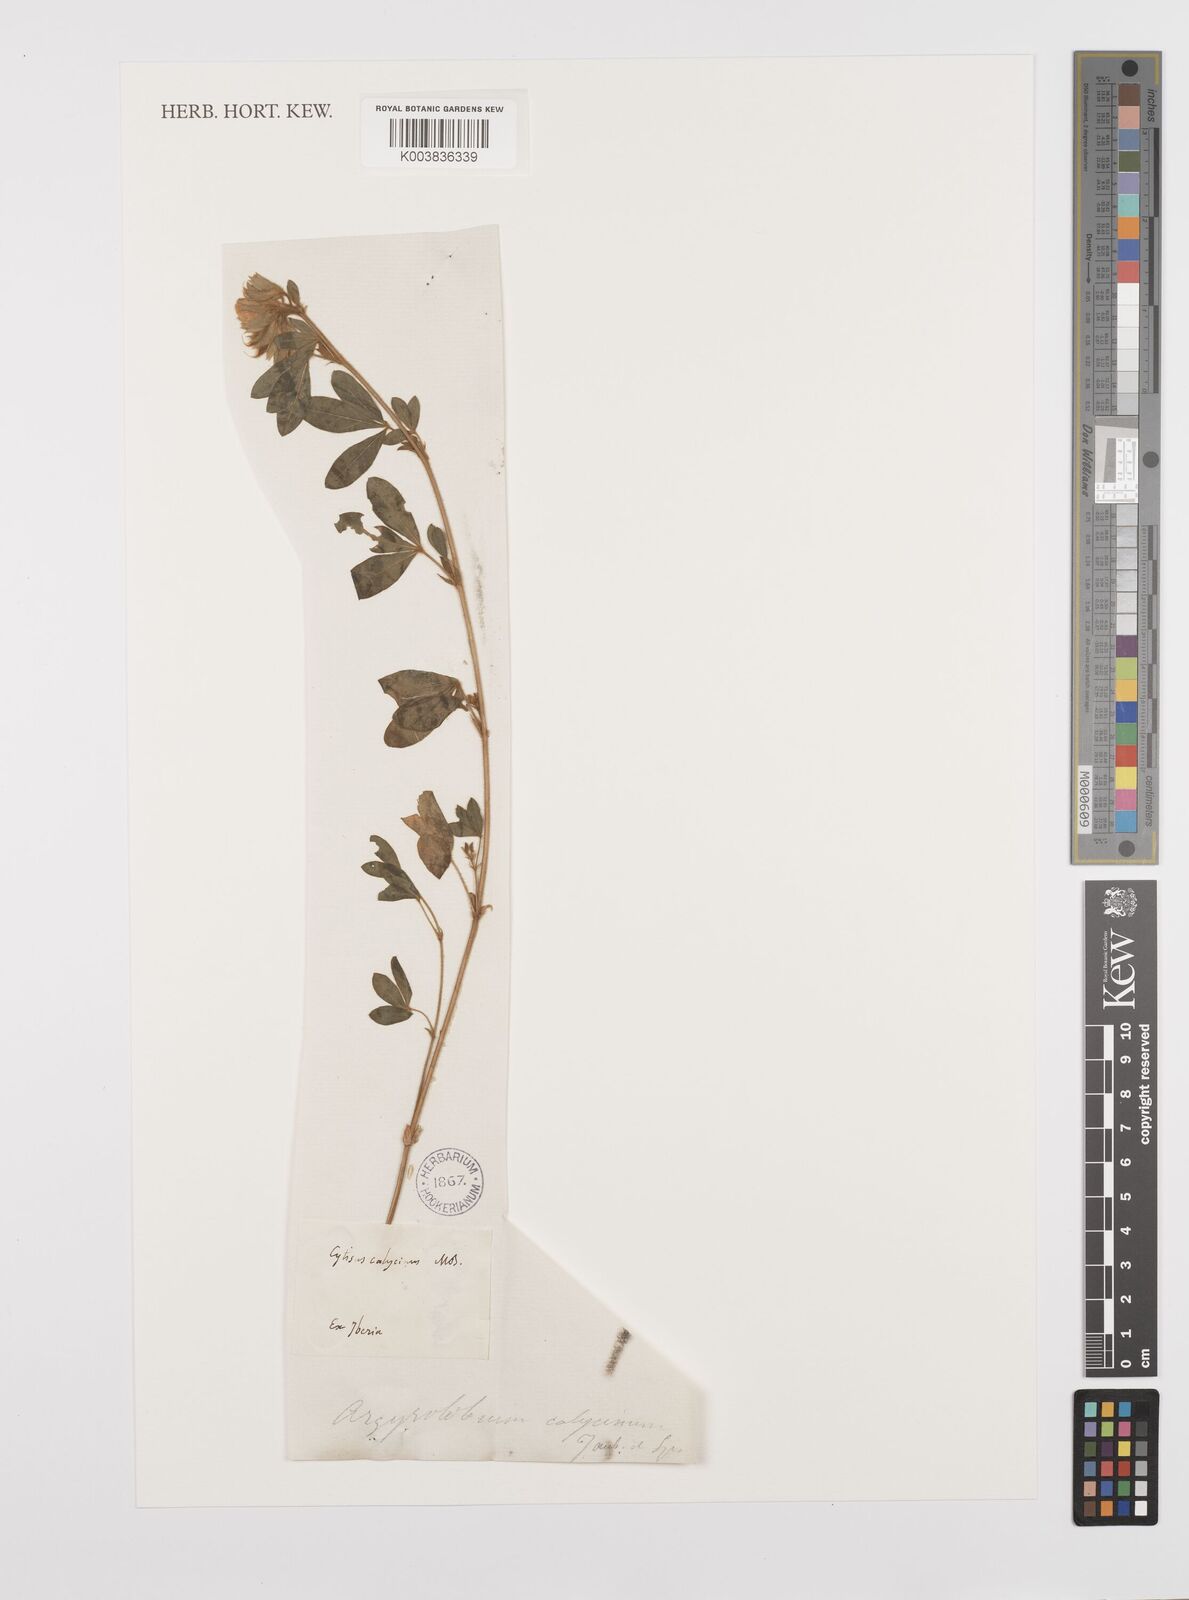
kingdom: Plantae
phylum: Tracheophyta
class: Magnoliopsida
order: Fabales
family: Fabaceae
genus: Argyrolobium
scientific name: Argyrolobium biebersteinii
